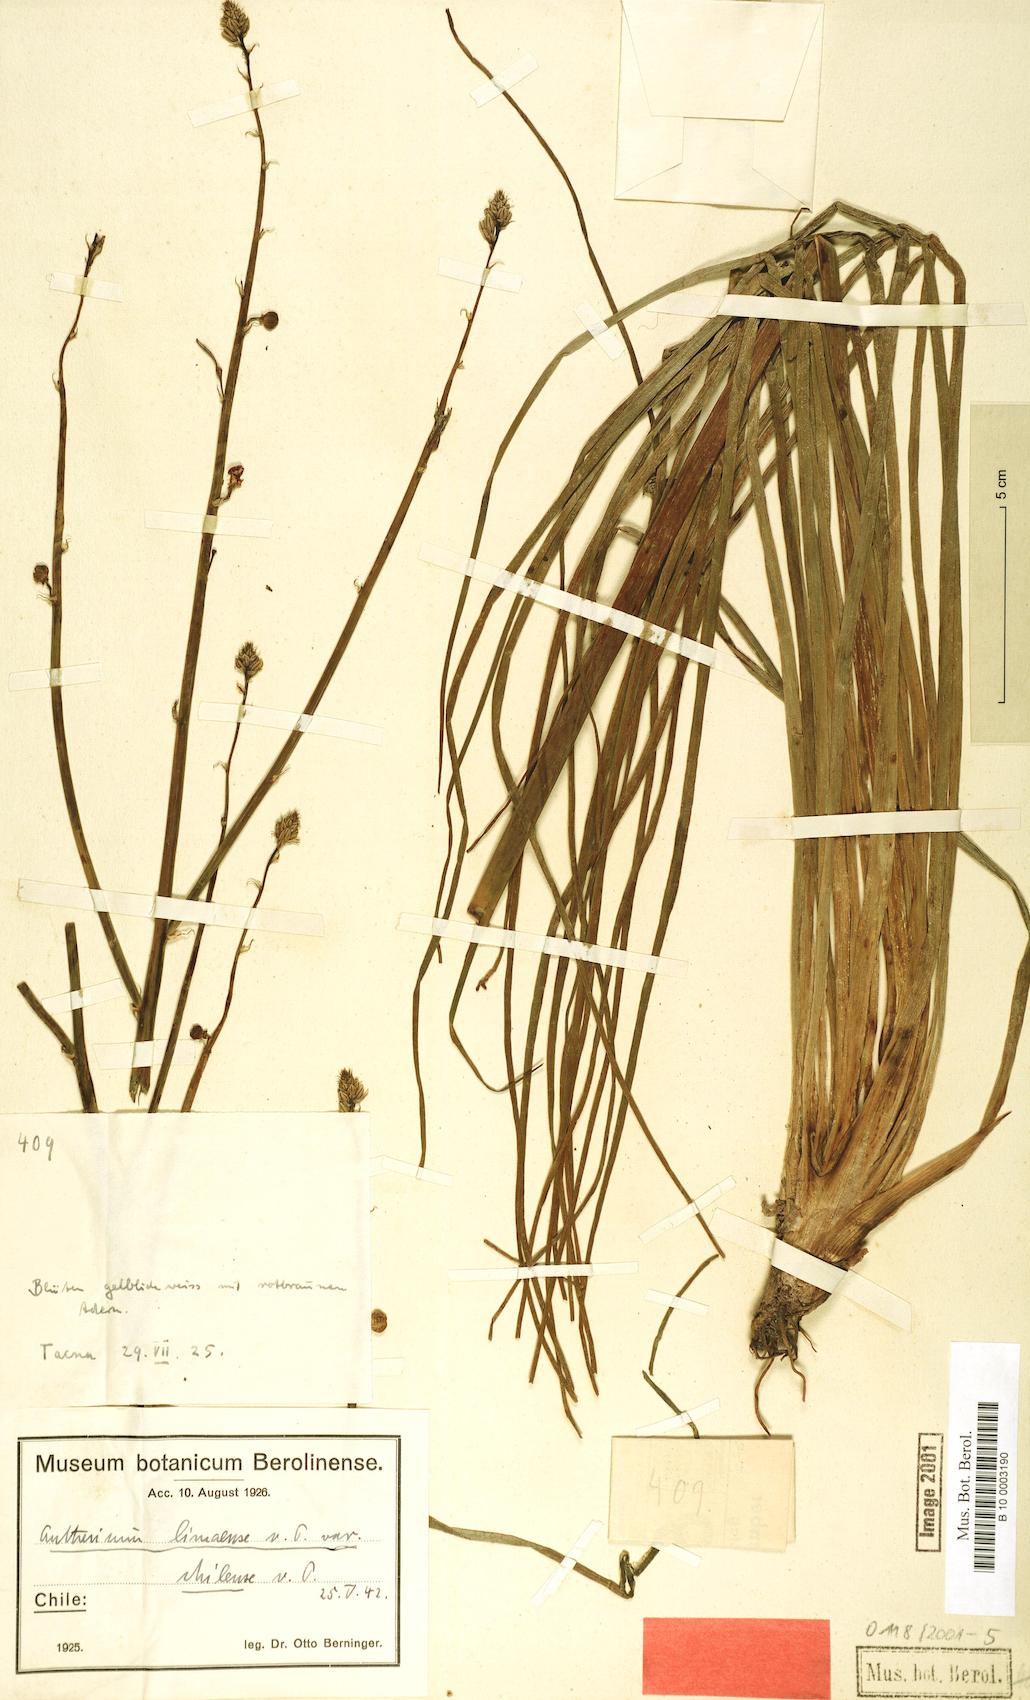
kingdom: Plantae
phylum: Tracheophyta
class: Liliopsida
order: Asparagales
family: Asphodelaceae
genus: Asphodelus
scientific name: Asphodelus fistulosus
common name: Onionweed
